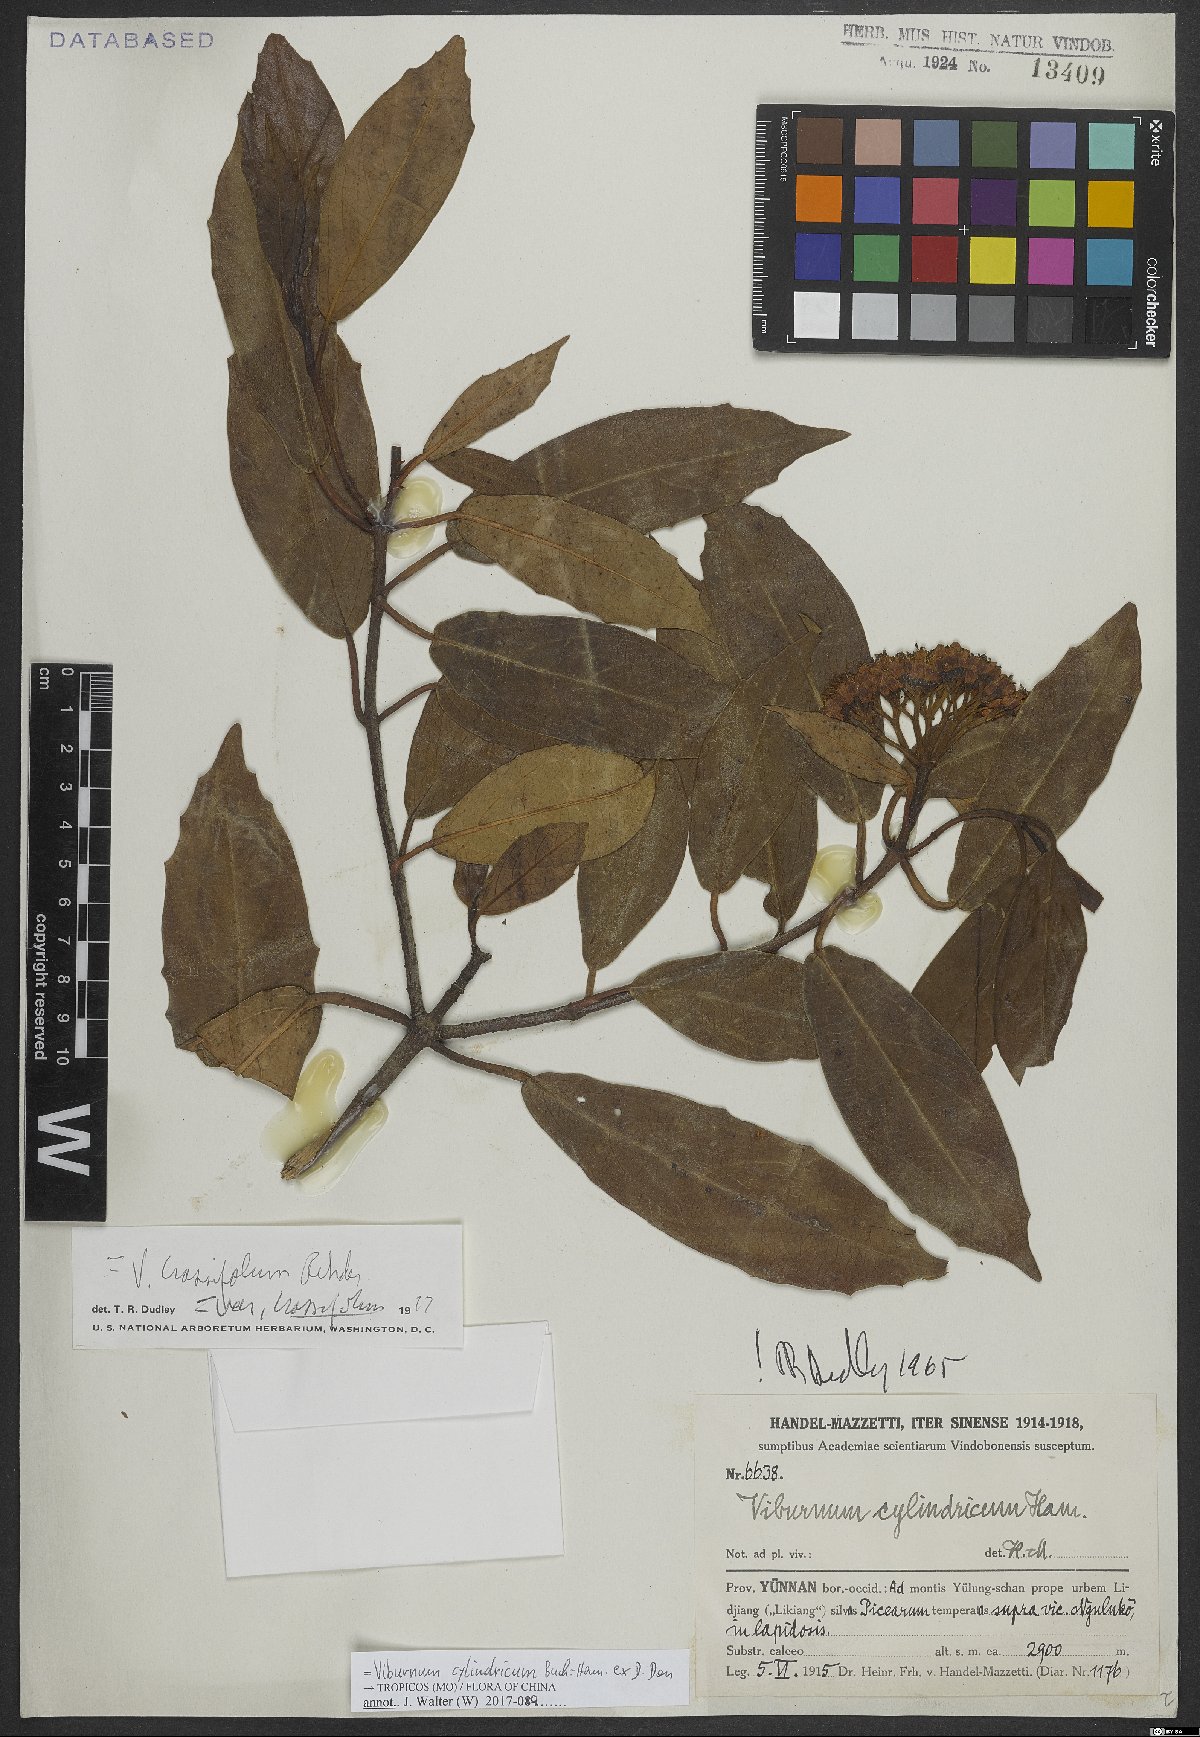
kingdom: Plantae
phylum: Tracheophyta
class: Magnoliopsida
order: Dipsacales
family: Viburnaceae
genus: Viburnum
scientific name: Viburnum cylindricum
